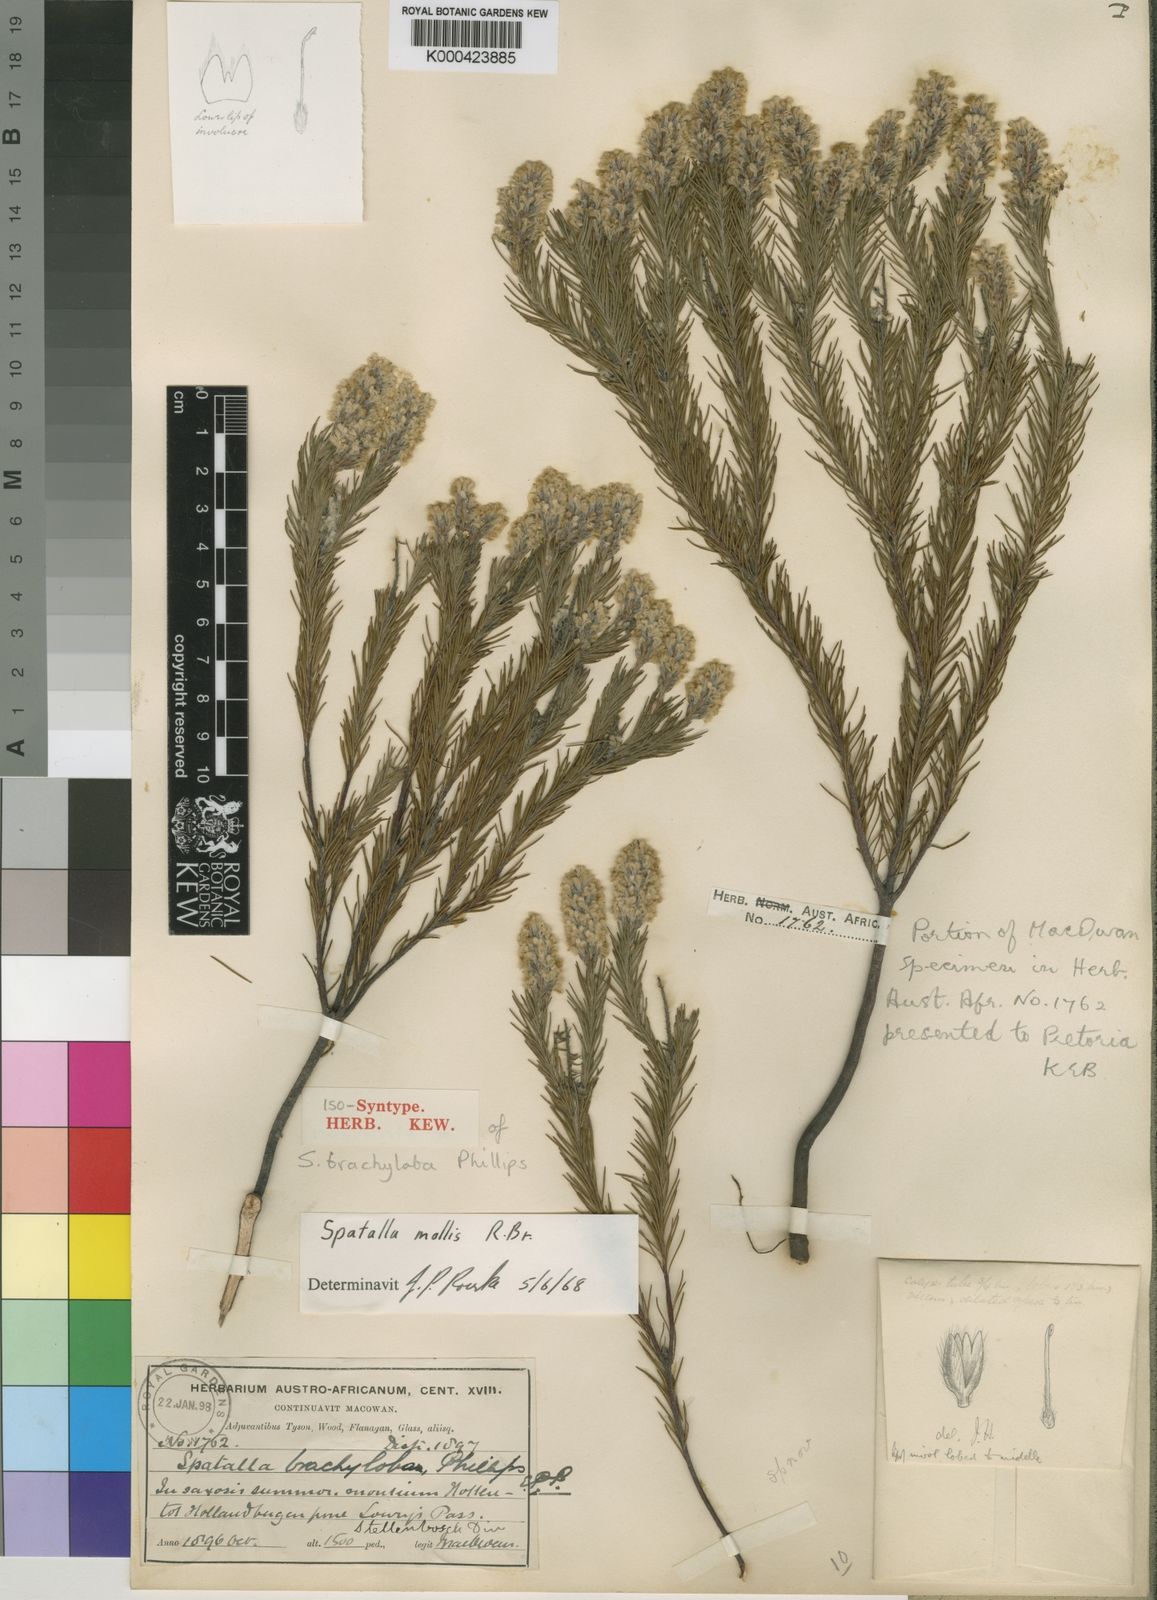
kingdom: Plantae
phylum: Tracheophyta
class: Magnoliopsida
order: Proteales
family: Proteaceae
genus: Spatalla
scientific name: Spatalla mollis
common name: Woolly spoon
